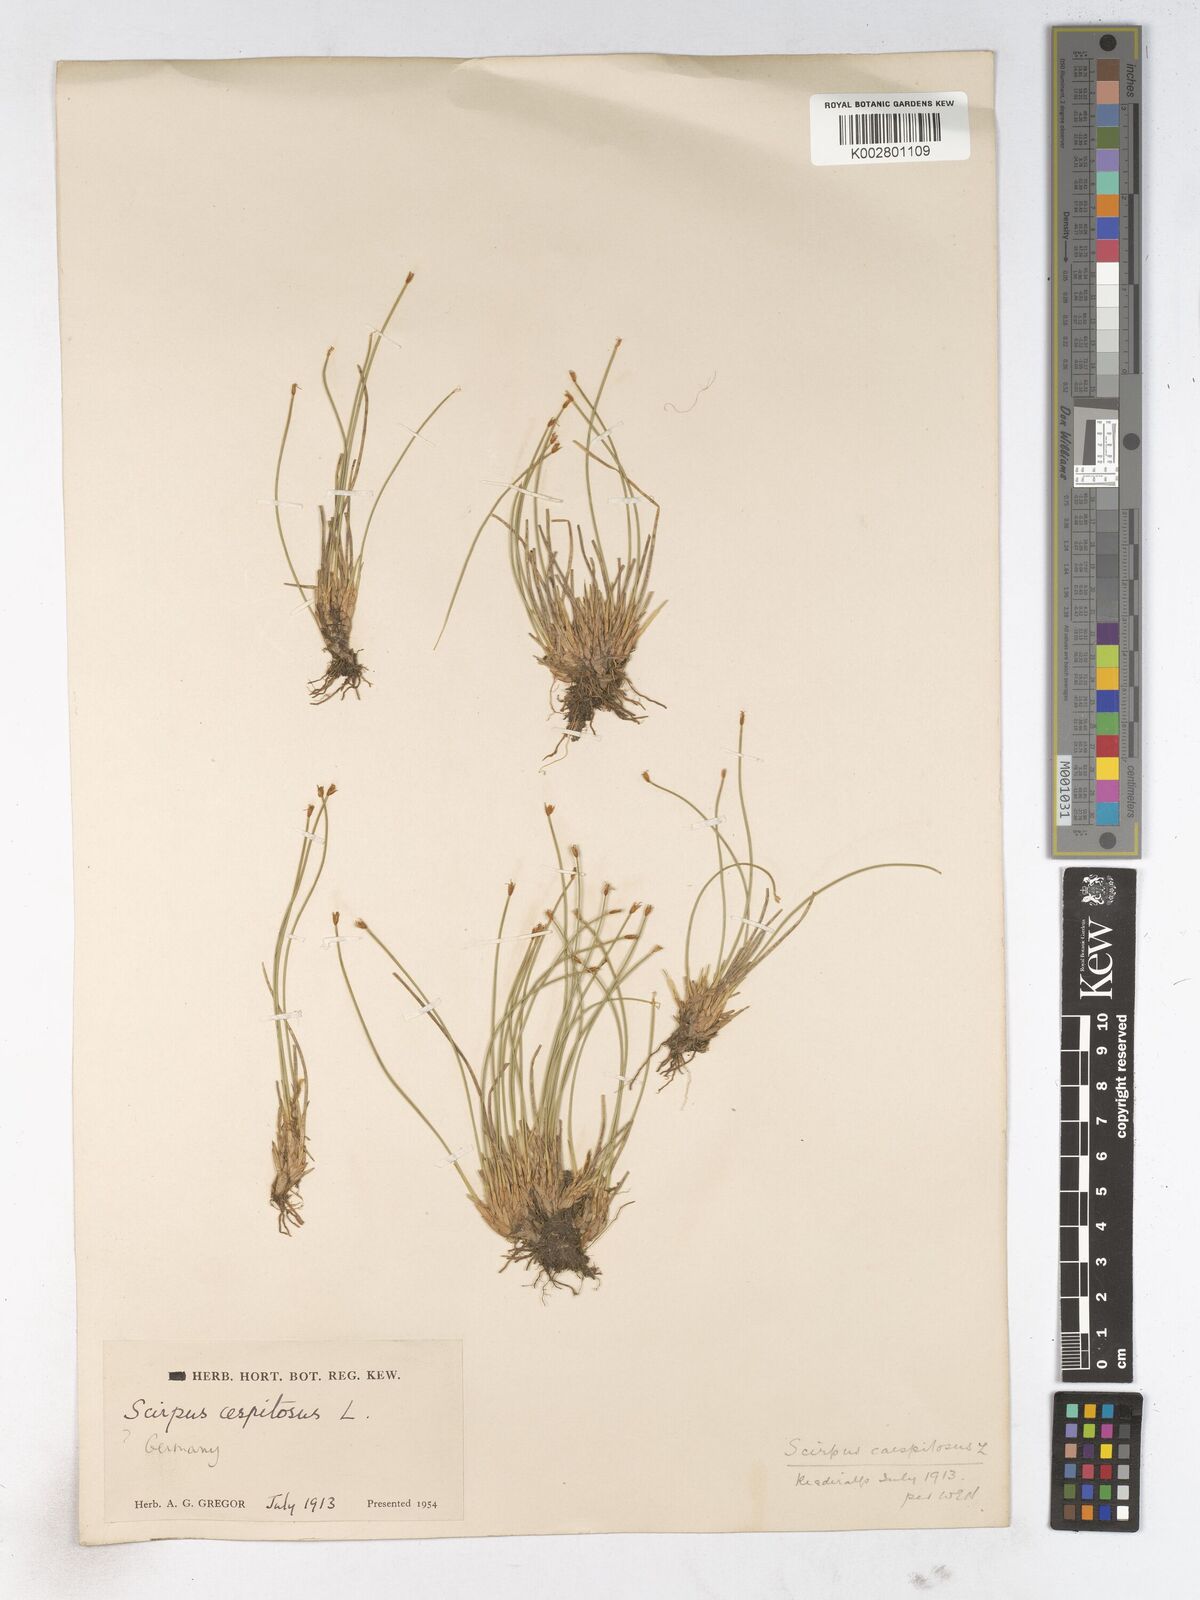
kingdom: Plantae
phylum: Tracheophyta
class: Liliopsida
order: Poales
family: Cyperaceae
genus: Trichophorum
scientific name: Trichophorum cespitosum
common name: Cespitose bulrush
